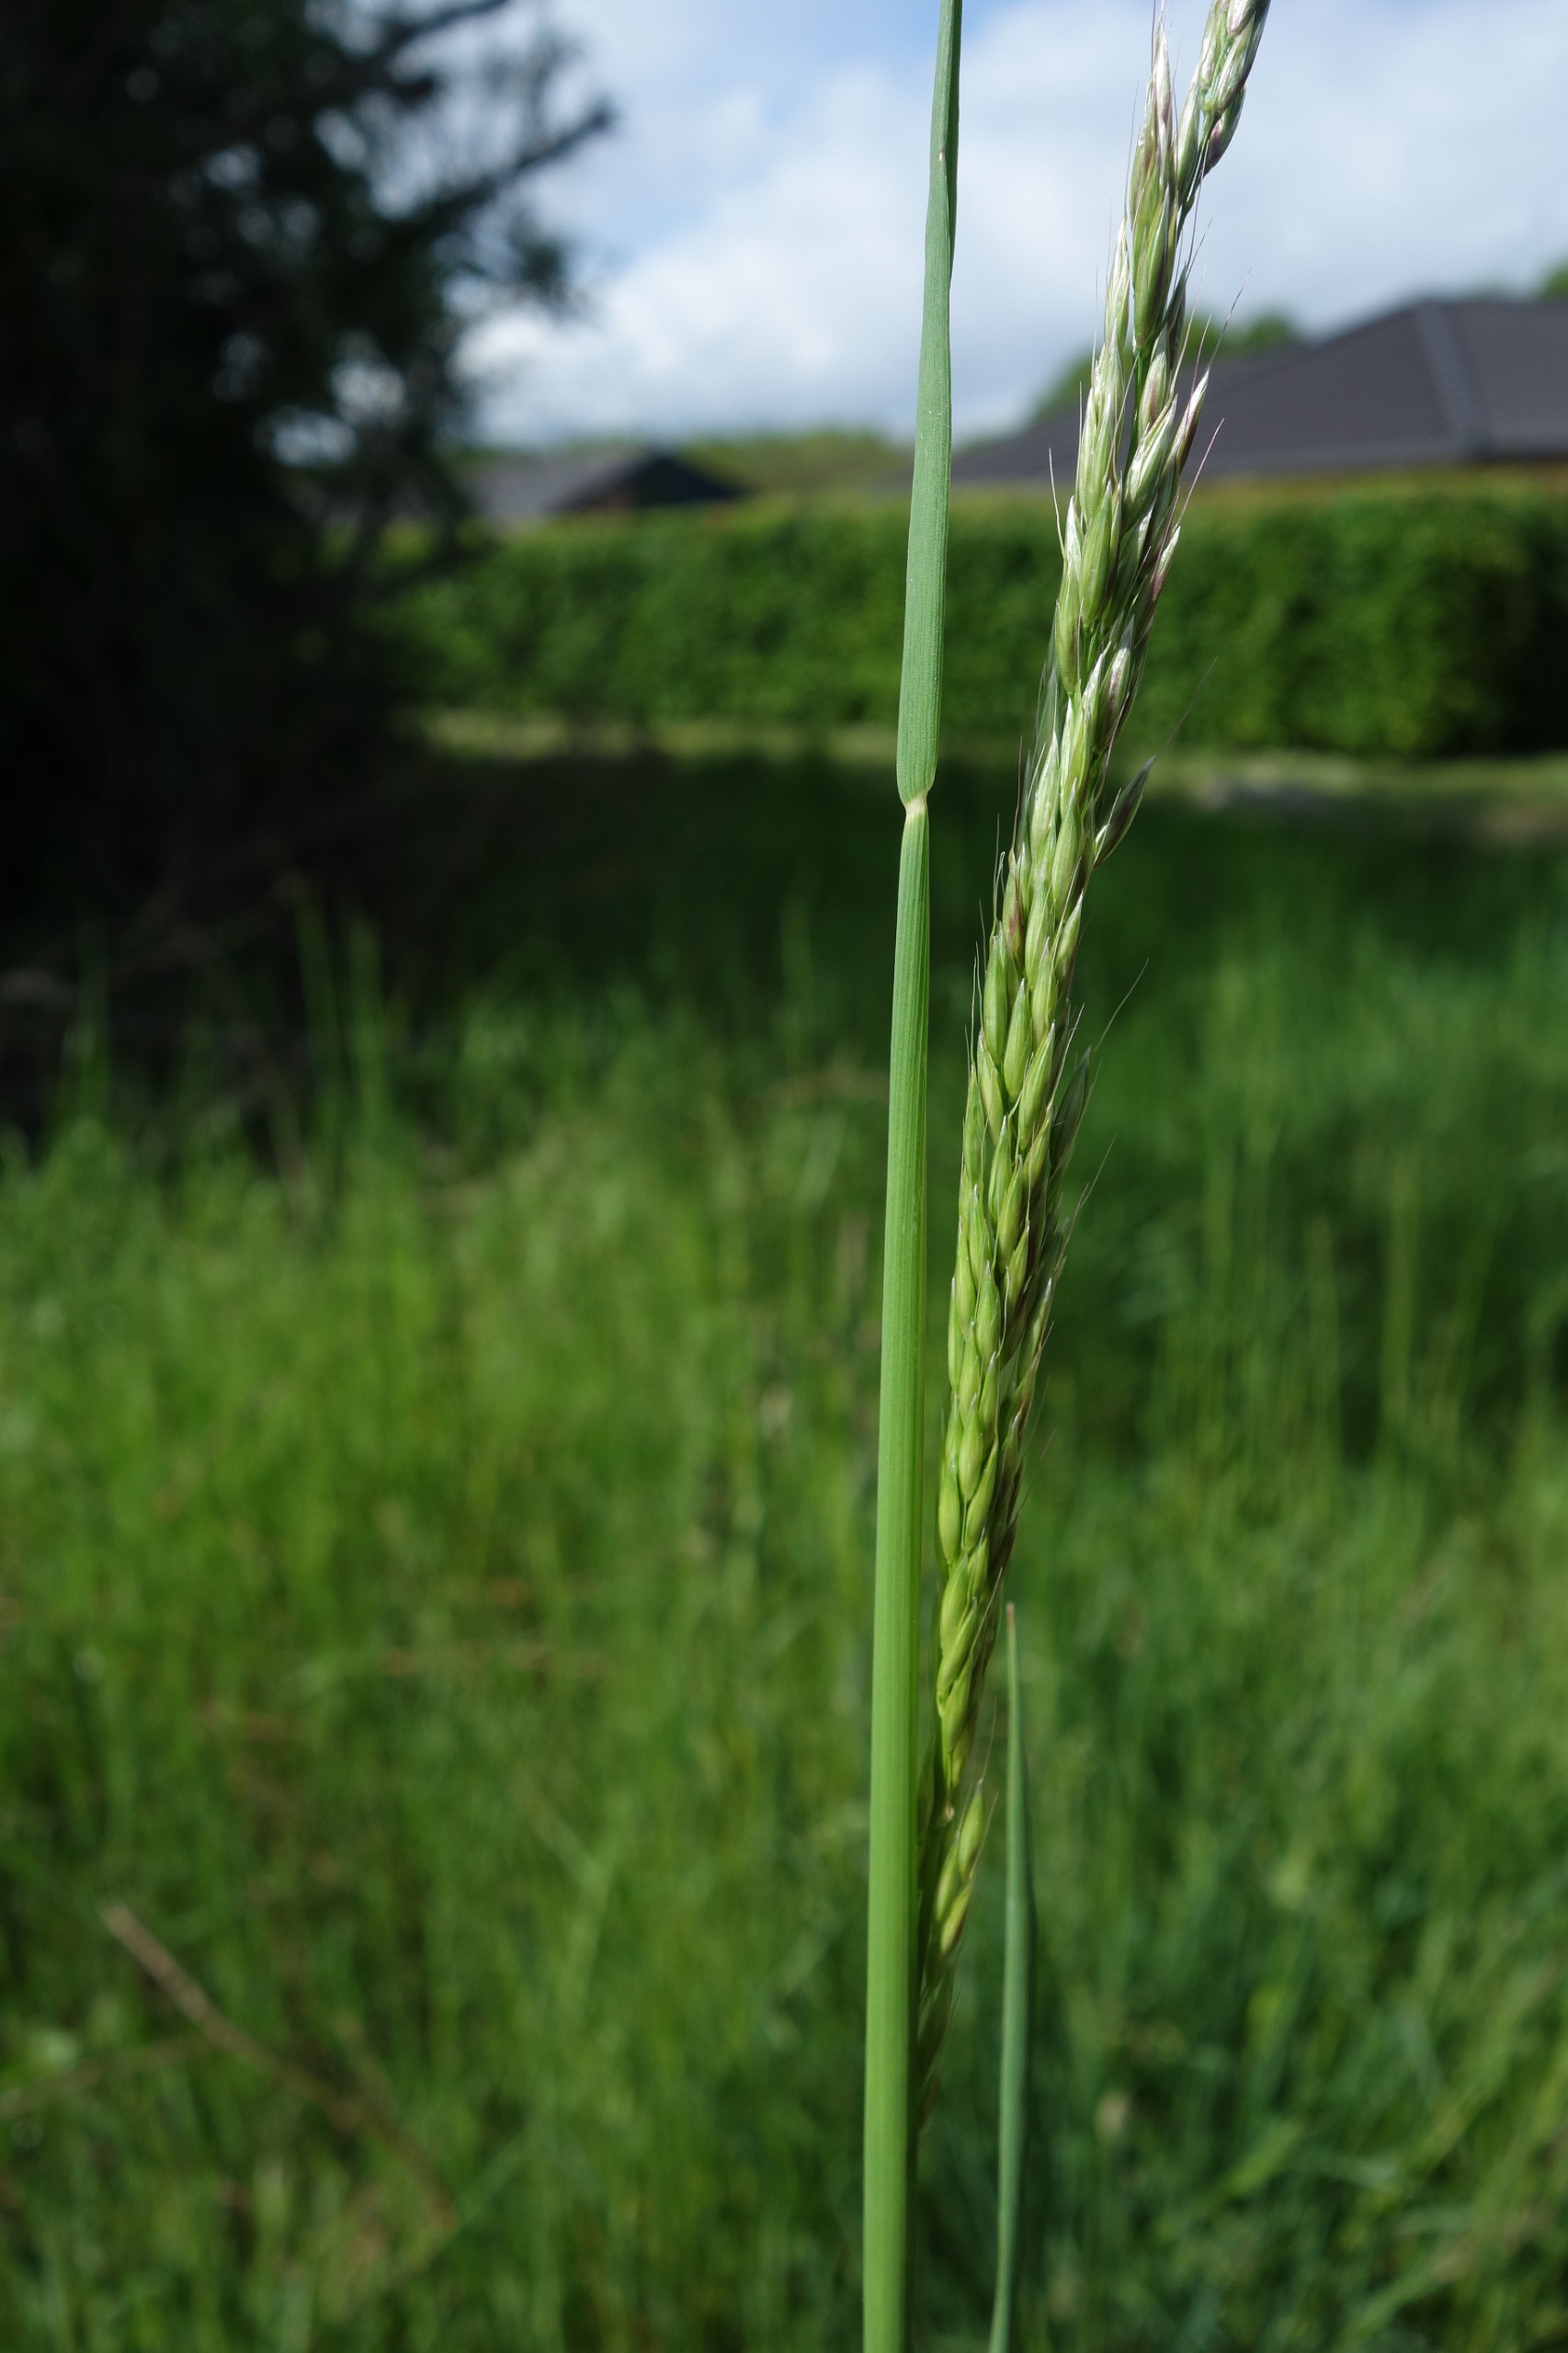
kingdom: Plantae
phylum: Tracheophyta
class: Liliopsida
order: Poales
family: Poaceae
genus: Arrhenatherum
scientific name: Arrhenatherum elatius
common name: Draphavre
